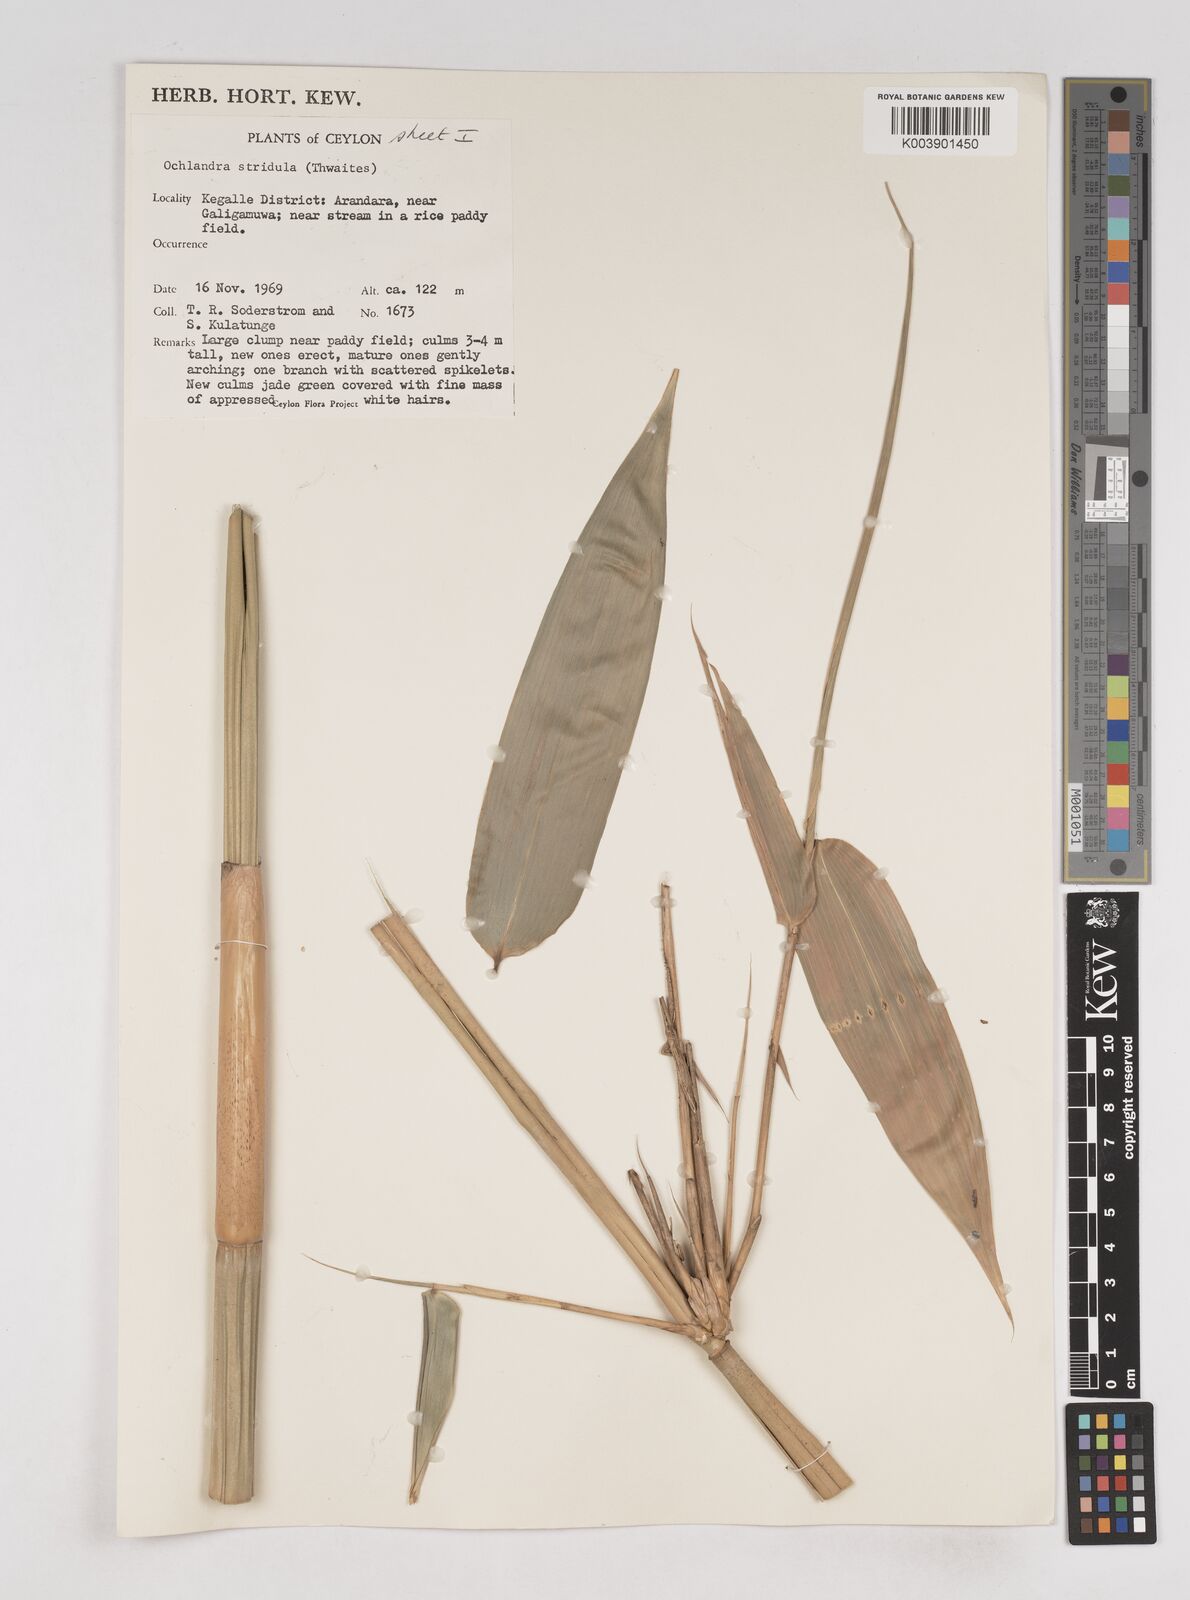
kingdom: Plantae
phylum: Tracheophyta
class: Liliopsida
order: Poales
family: Poaceae
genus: Ochlandra
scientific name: Ochlandra stridula
